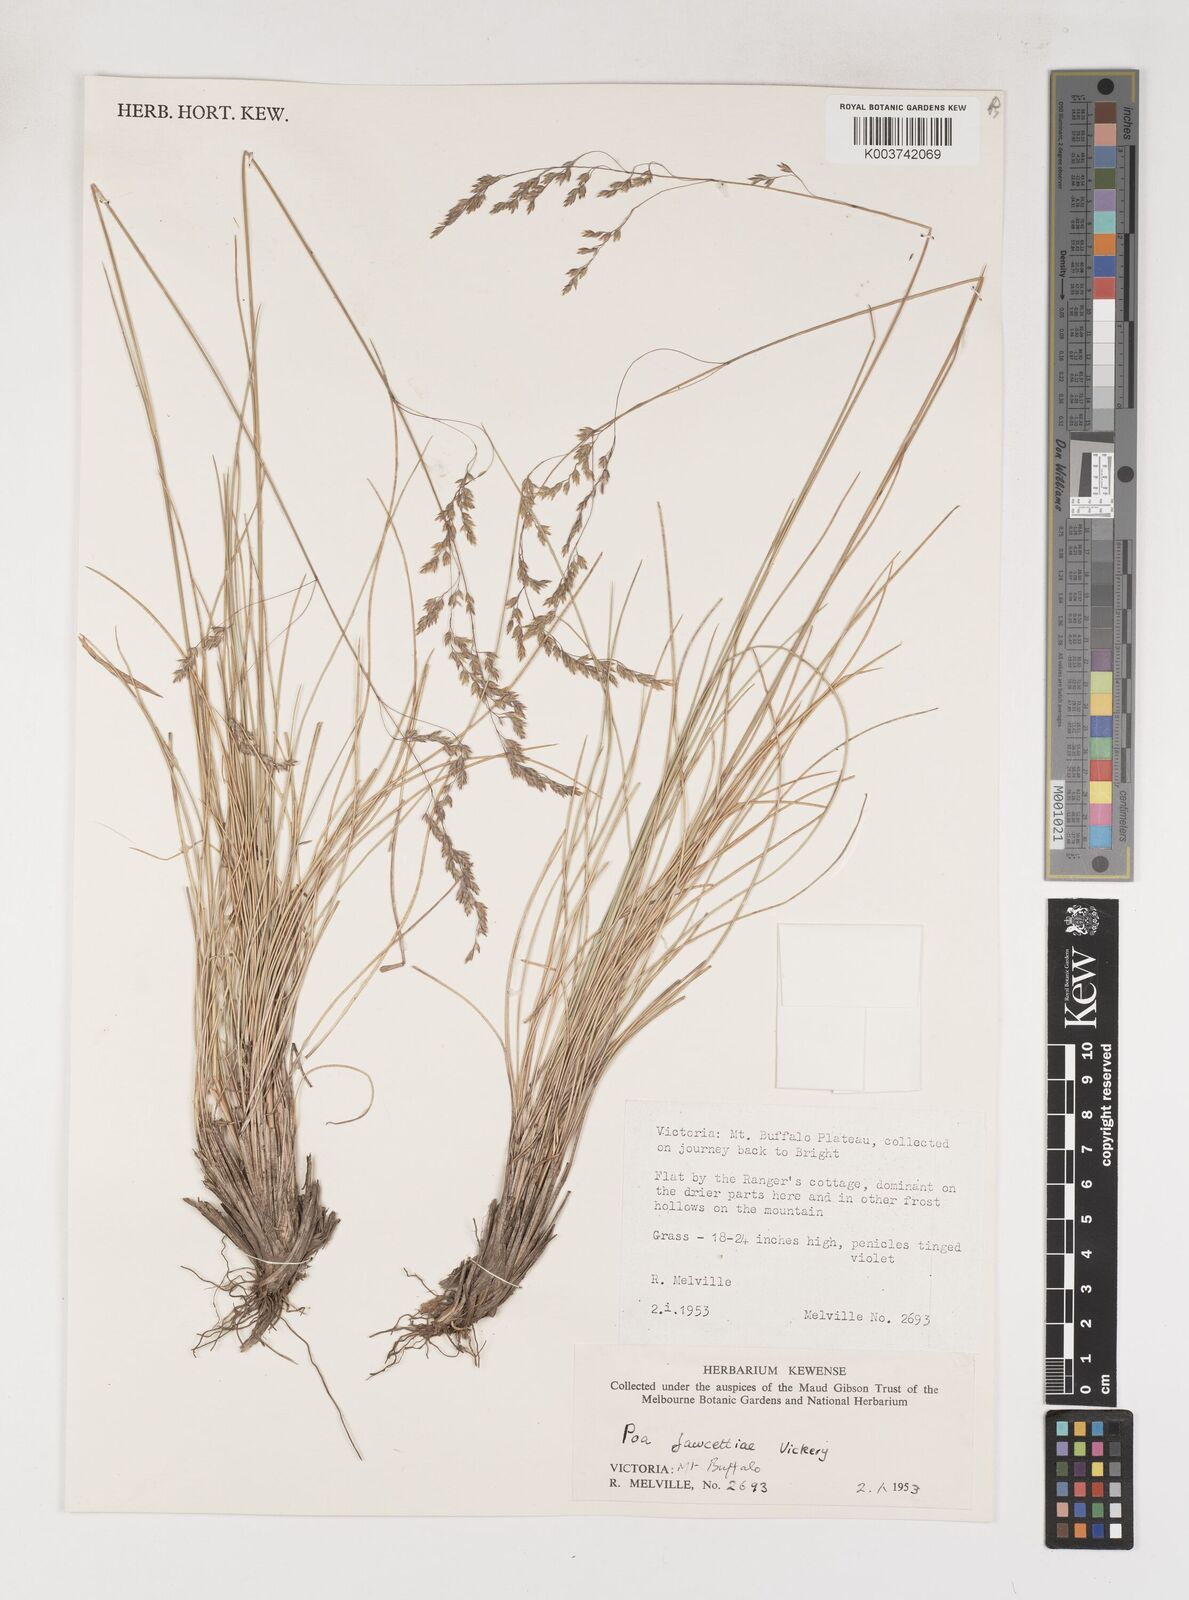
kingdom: Plantae
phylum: Tracheophyta
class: Liliopsida
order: Poales
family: Poaceae
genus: Poa
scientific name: Poa fawcettiae
